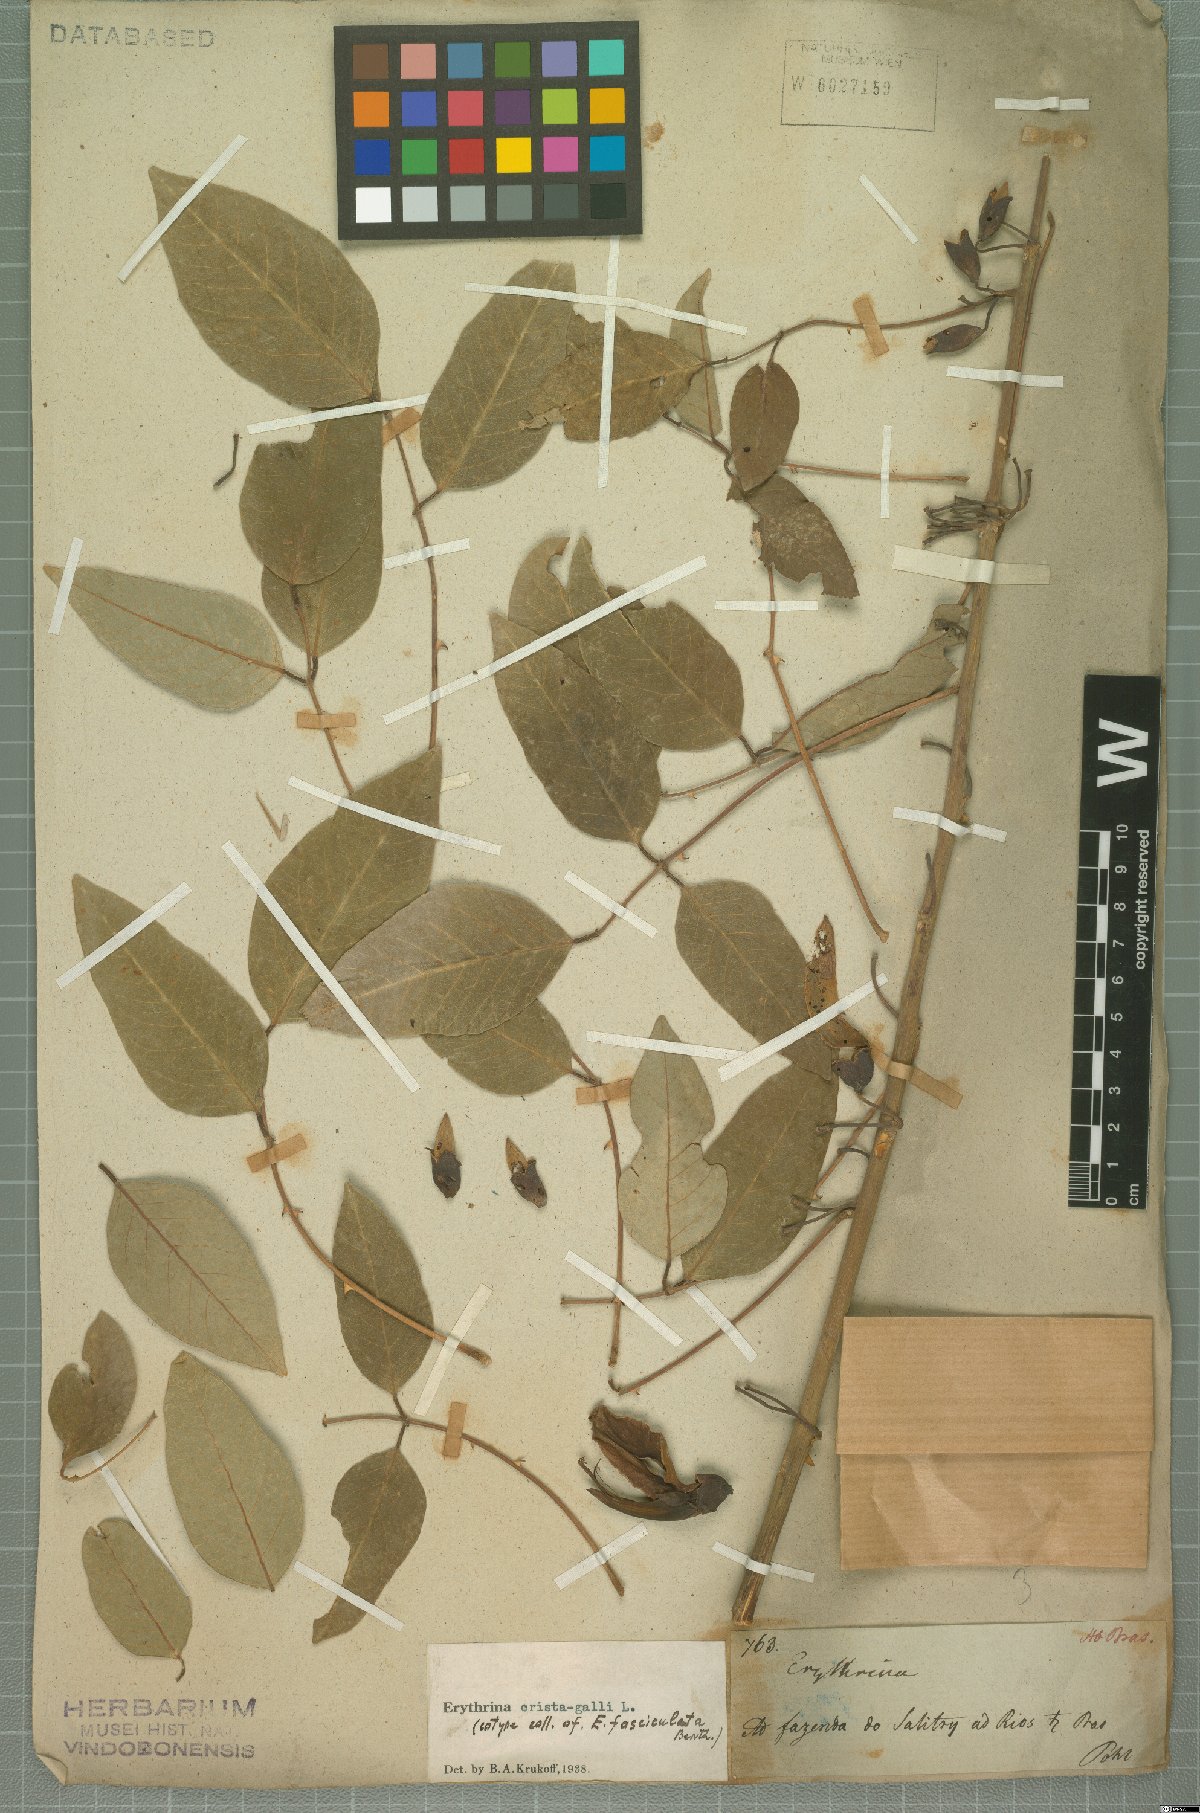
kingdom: Plantae
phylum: Tracheophyta
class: Magnoliopsida
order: Fabales
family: Fabaceae
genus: Erythrina
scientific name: Erythrina crista-galli
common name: Cockspur coral tree
